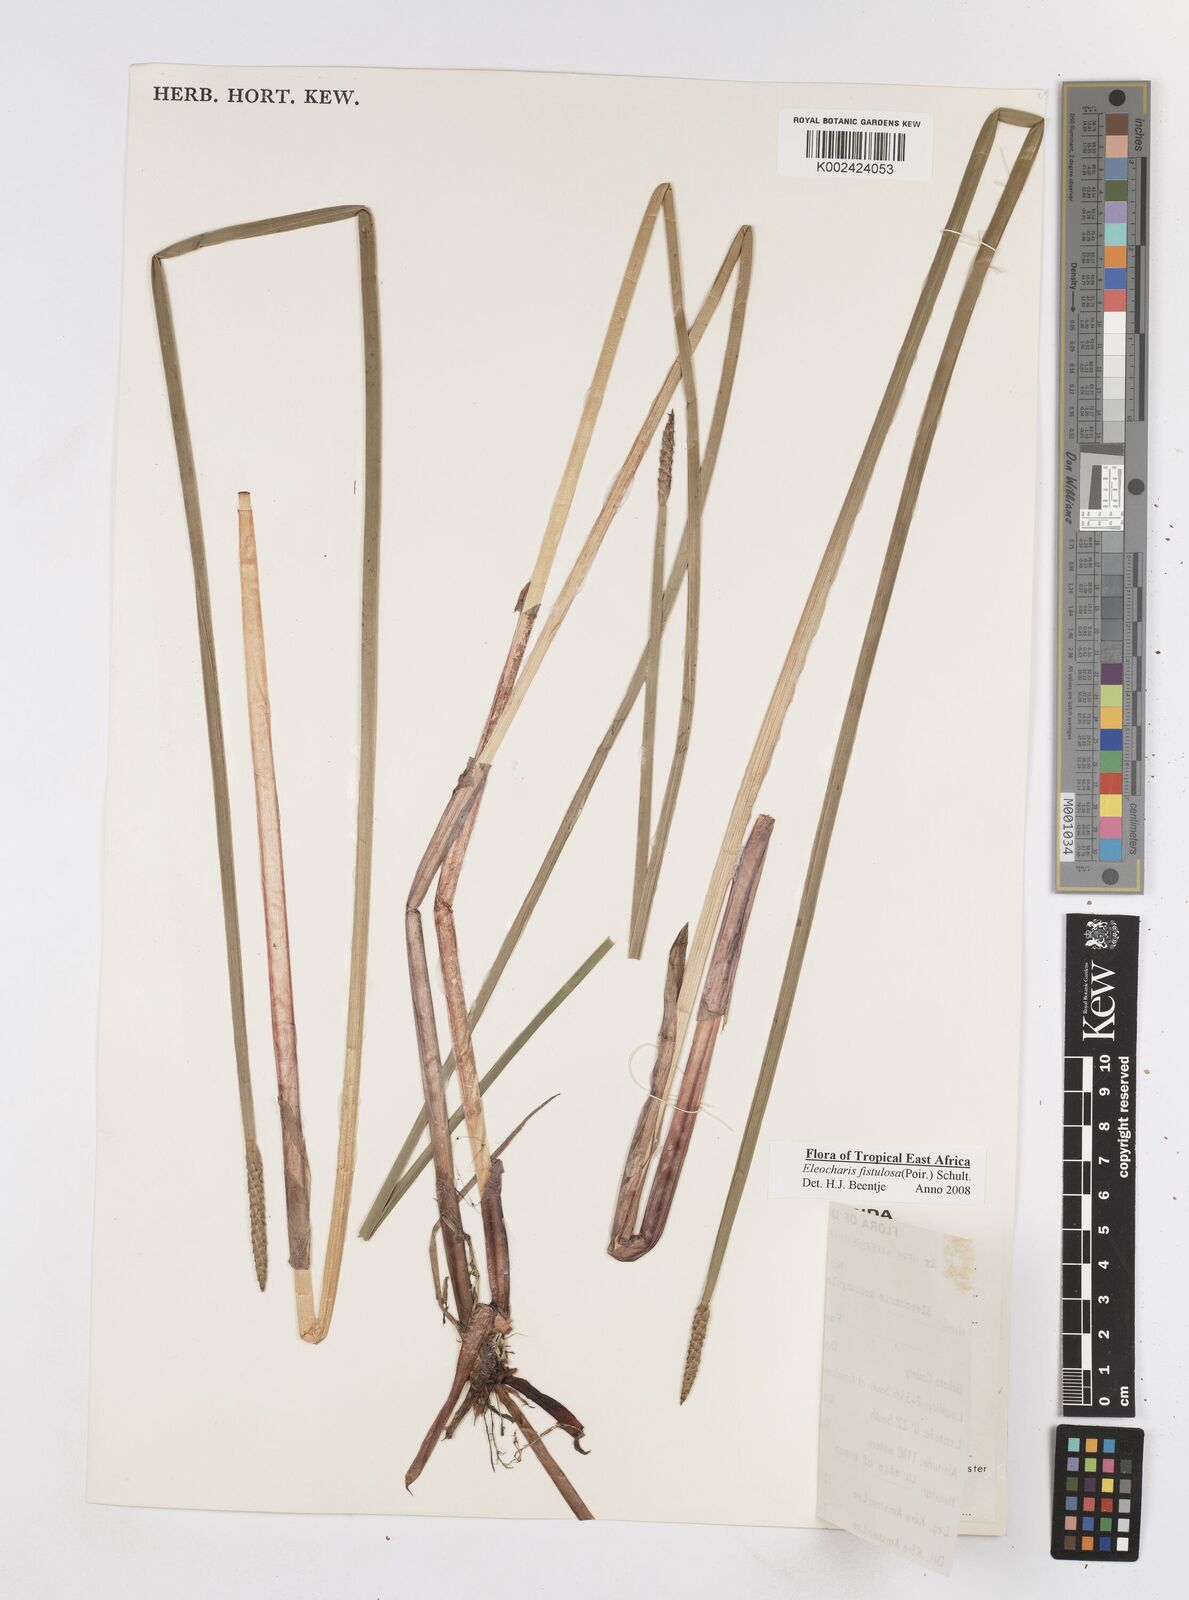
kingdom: Plantae
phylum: Tracheophyta
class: Liliopsida
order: Poales
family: Cyperaceae
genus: Eleocharis
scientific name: Eleocharis acutangula
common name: Acute spikerush
